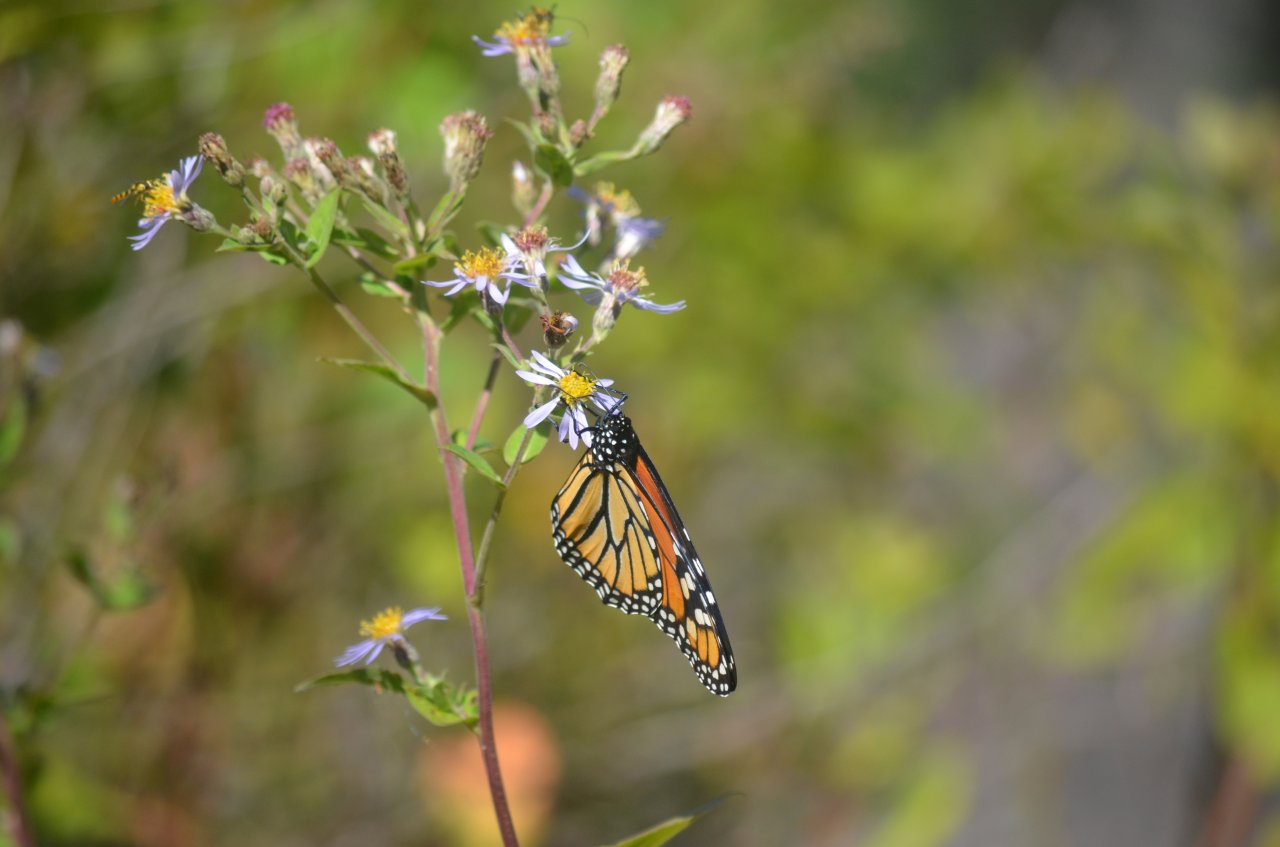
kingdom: Animalia
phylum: Arthropoda
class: Insecta
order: Lepidoptera
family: Nymphalidae
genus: Danaus
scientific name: Danaus plexippus
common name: Monarch
